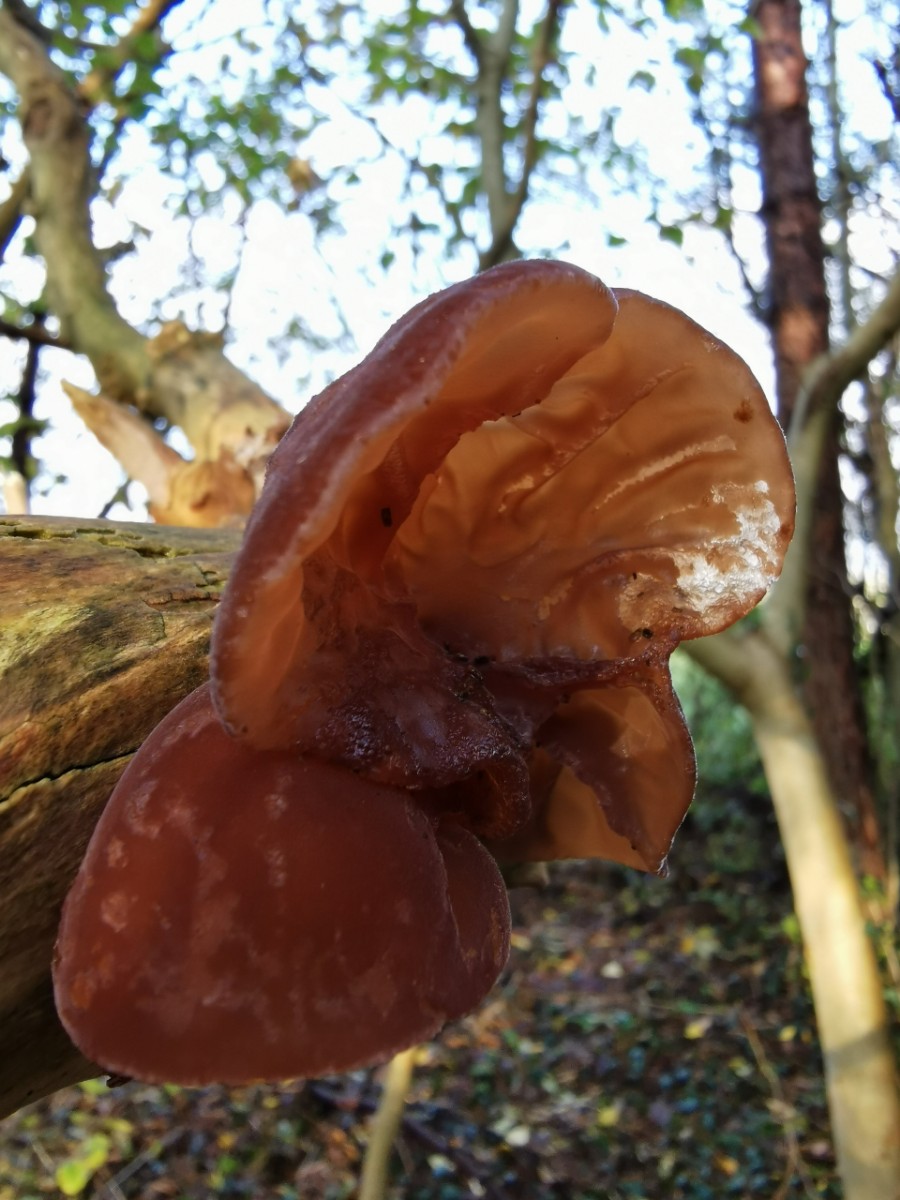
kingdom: Fungi
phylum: Basidiomycota
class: Agaricomycetes
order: Auriculariales
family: Auriculariaceae
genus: Auricularia
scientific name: Auricularia auricula-judae
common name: almindelig judasøre
